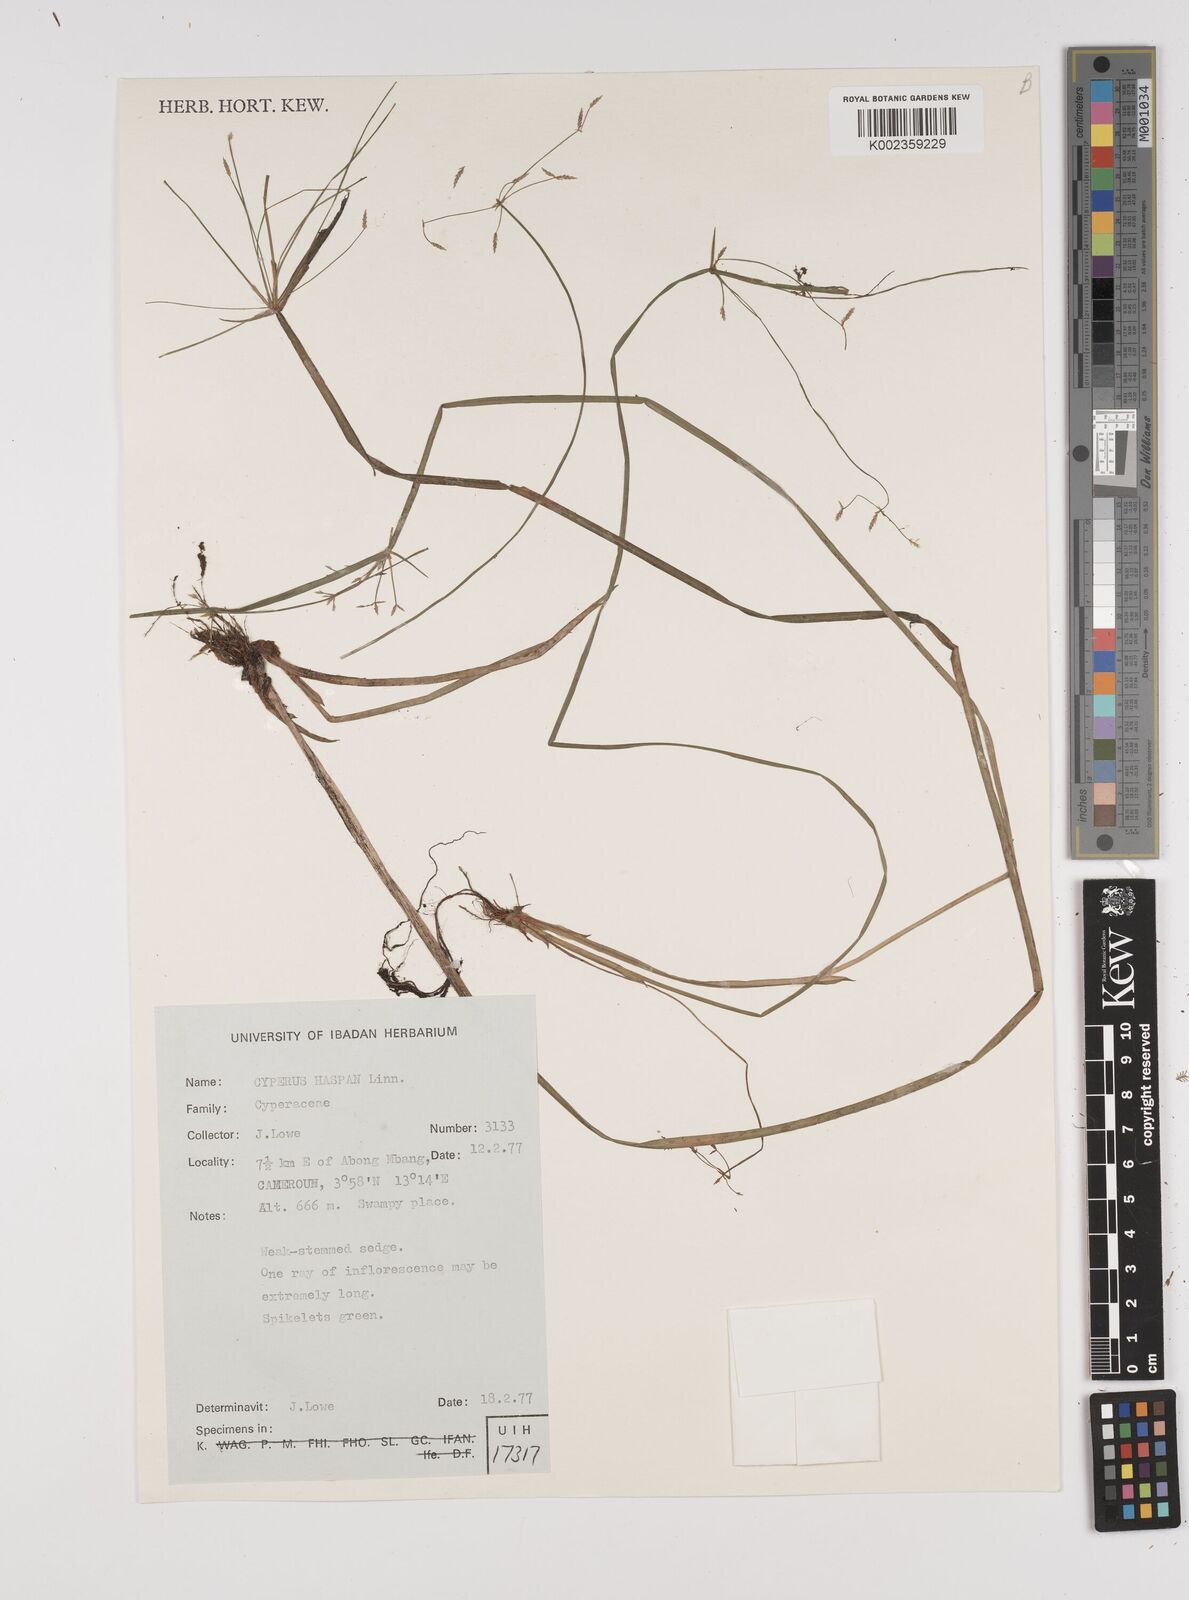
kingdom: Plantae
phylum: Tracheophyta
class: Liliopsida
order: Poales
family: Cyperaceae
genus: Cyperus
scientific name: Cyperus haspan
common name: Haspan flatsedge
